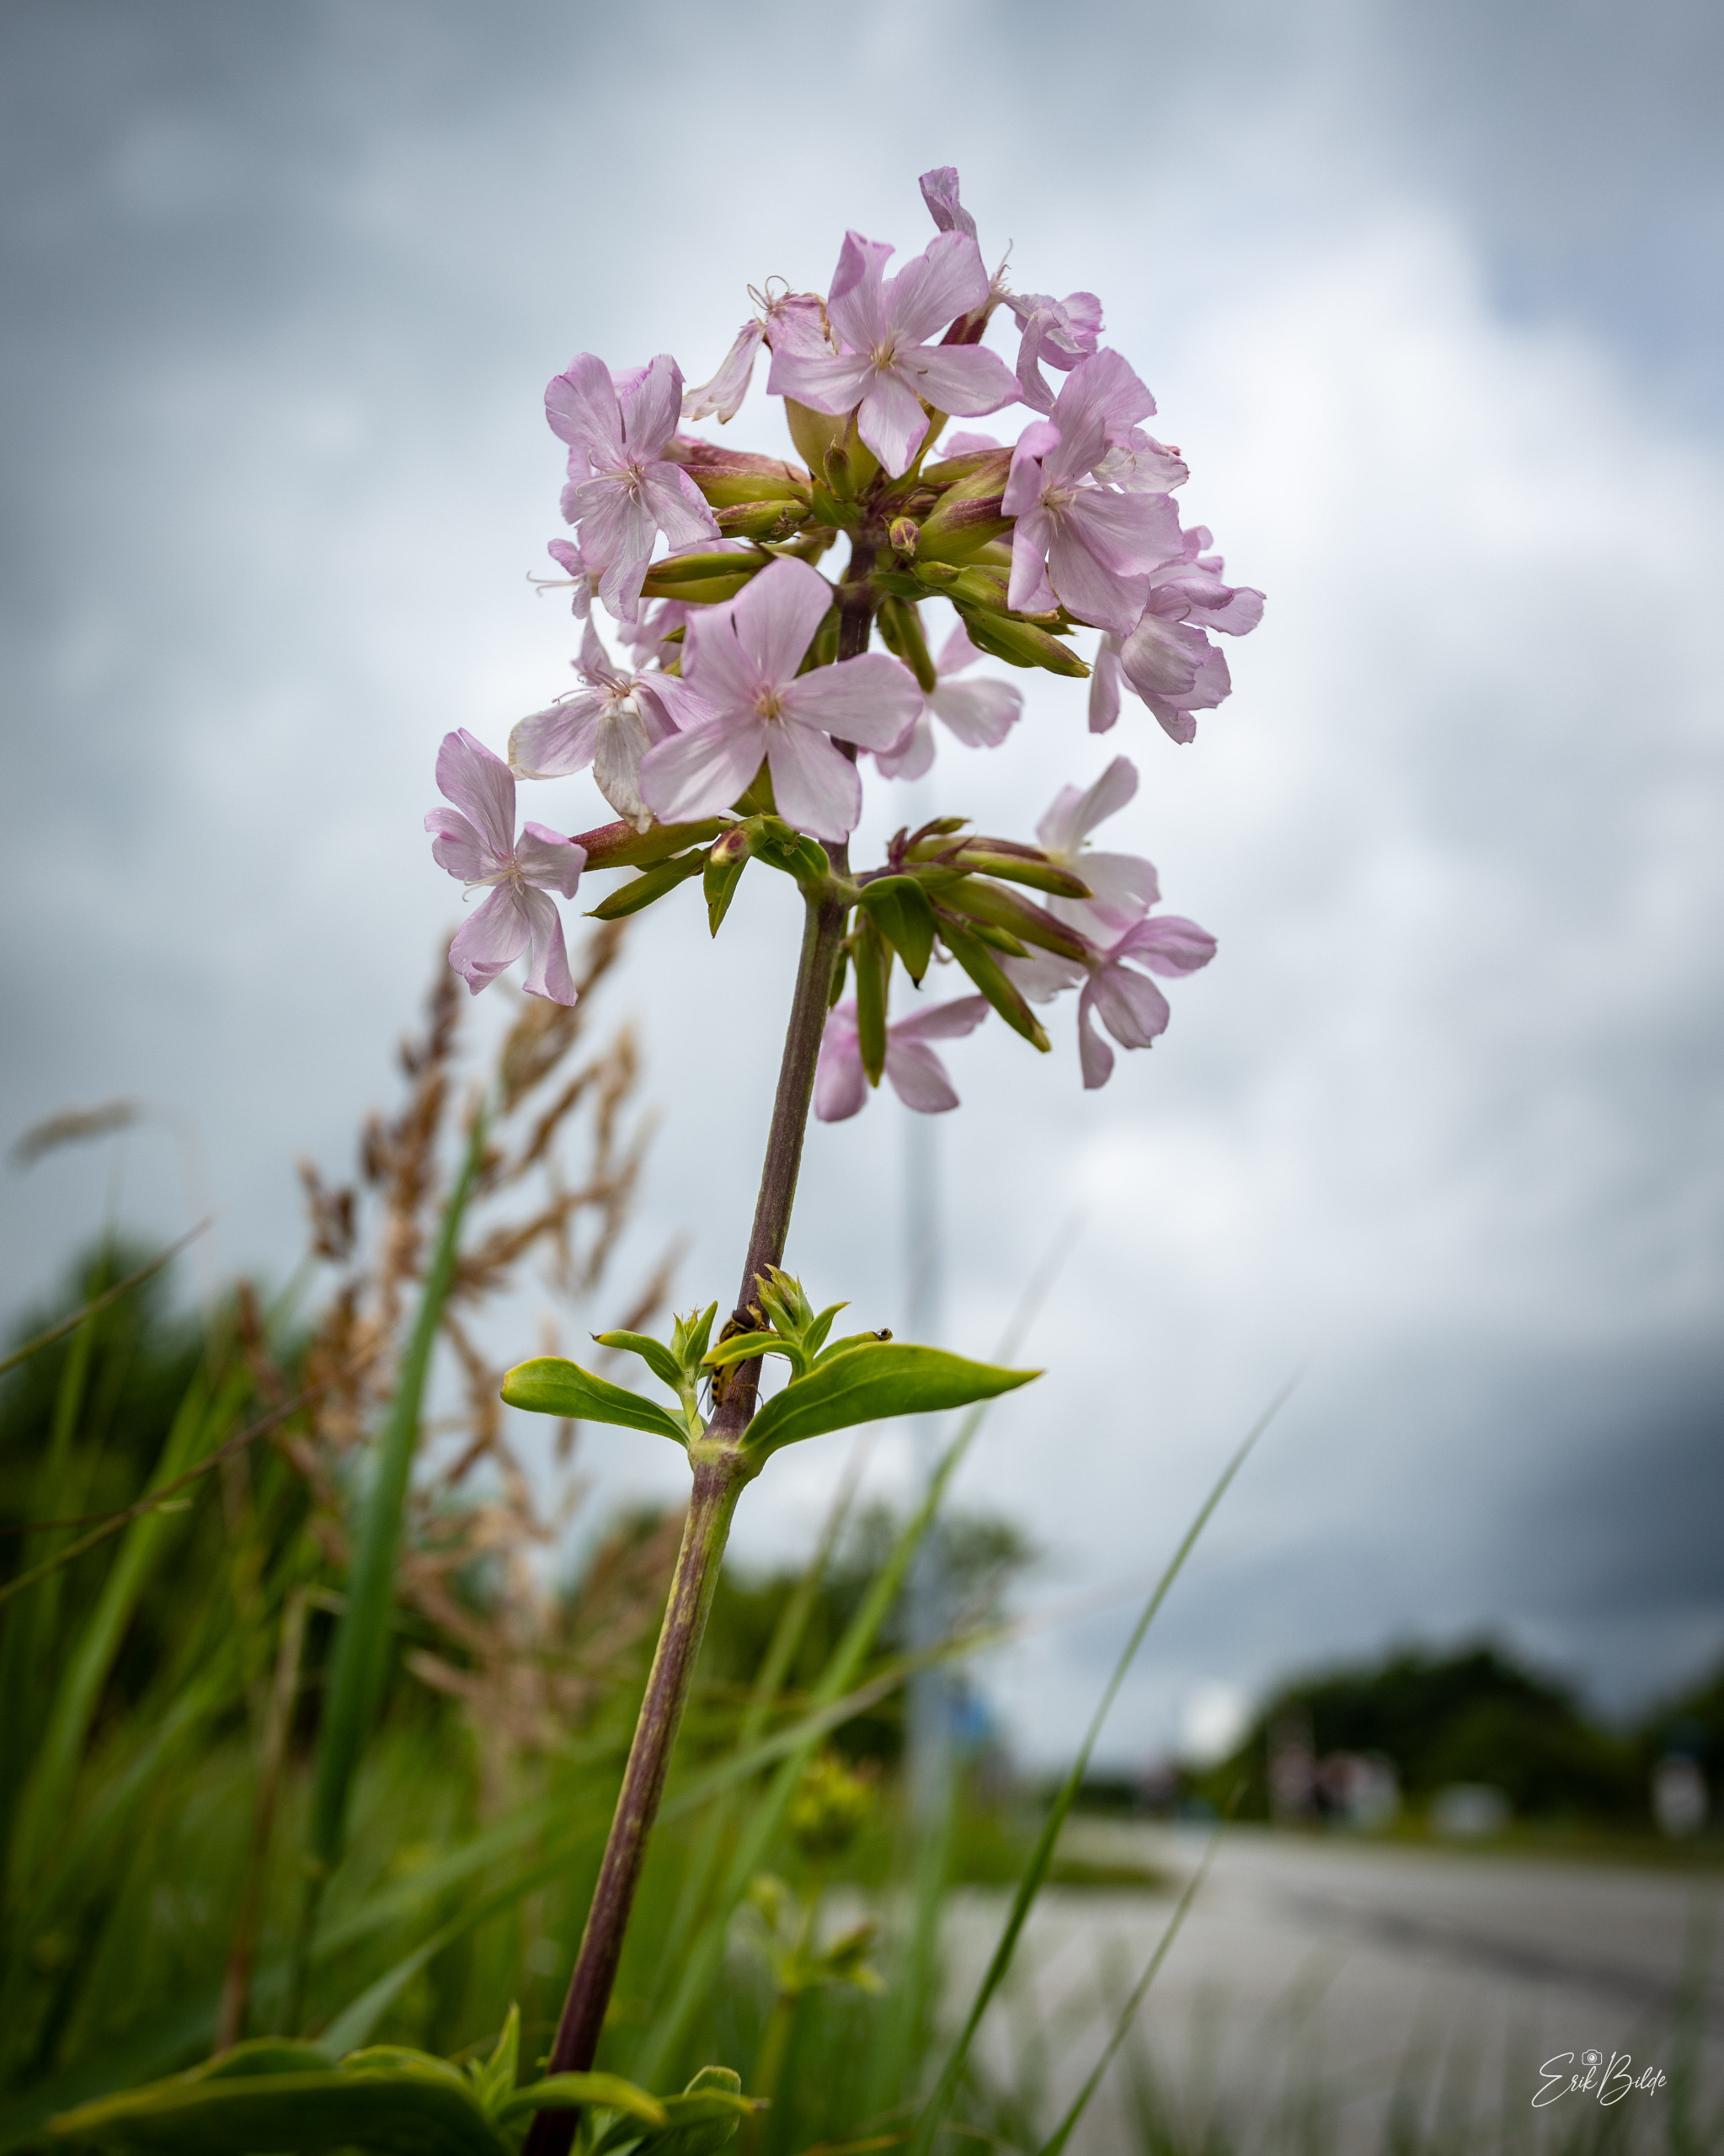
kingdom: Plantae
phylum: Tracheophyta
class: Magnoliopsida
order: Caryophyllales
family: Caryophyllaceae
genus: Saponaria
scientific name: Saponaria officinalis
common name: Sæbeurt
